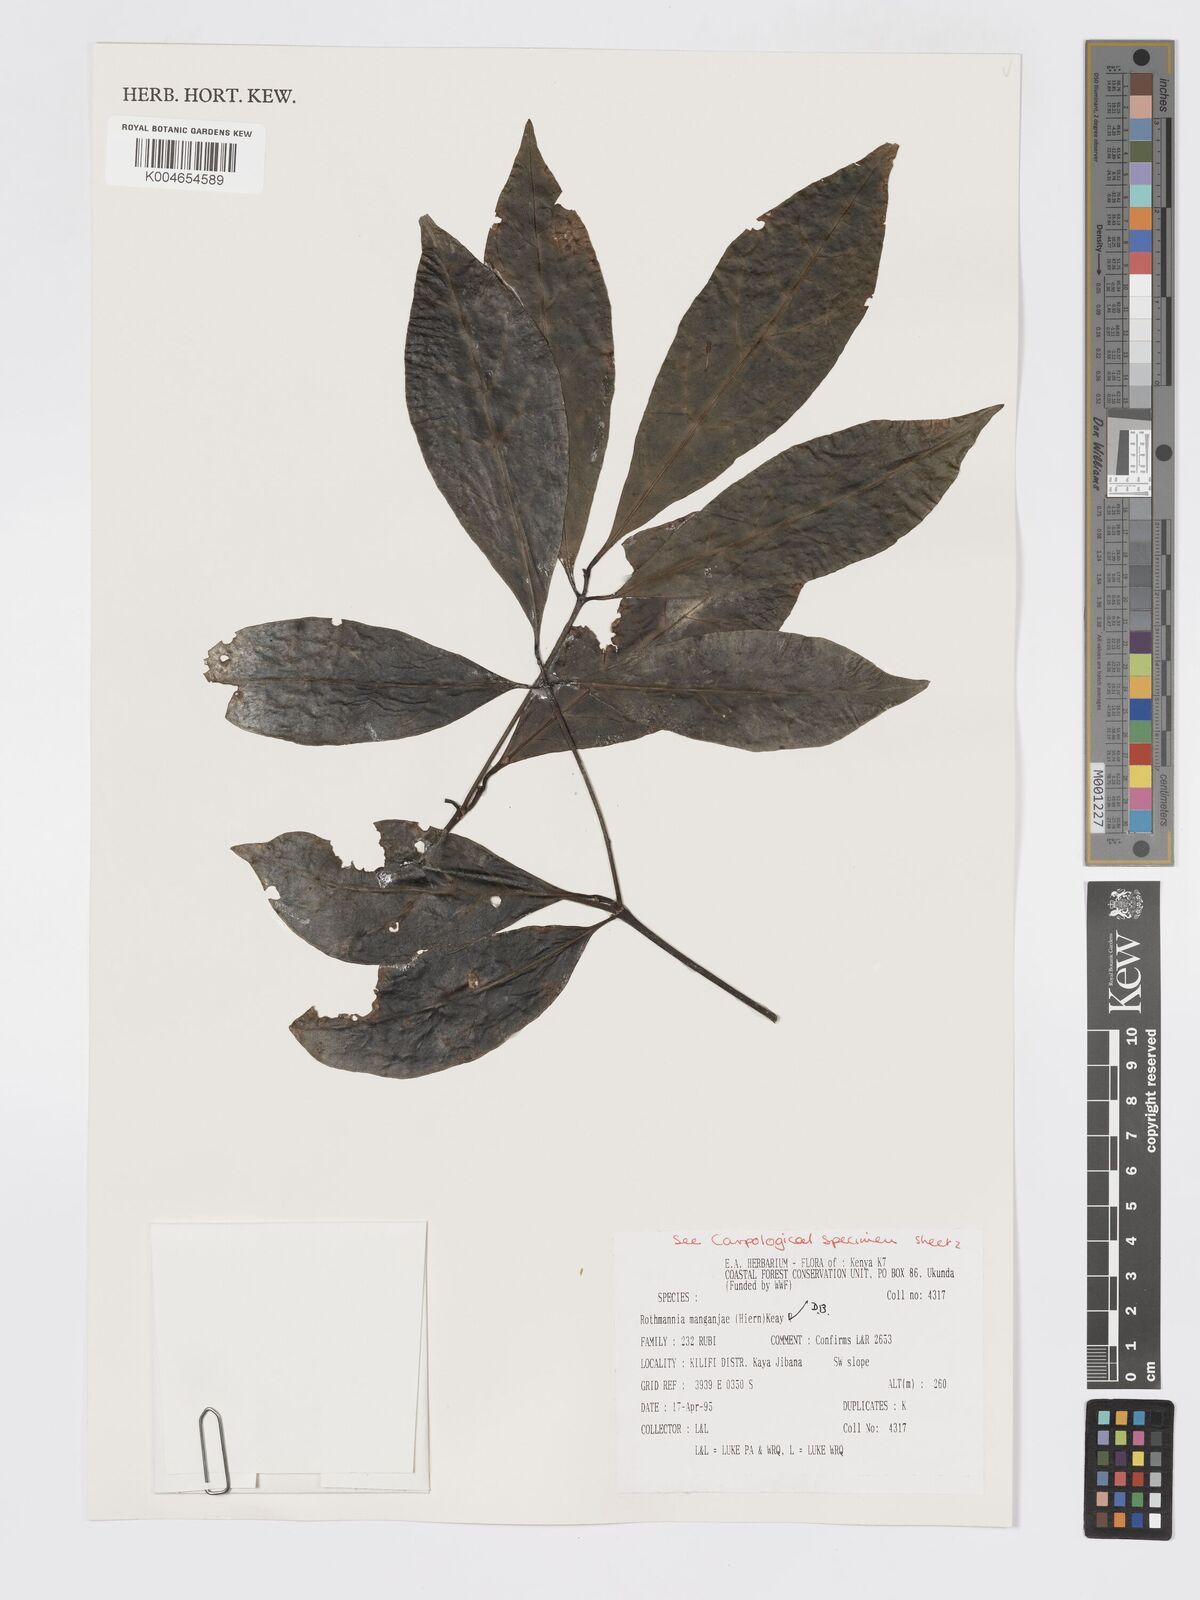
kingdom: Plantae
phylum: Tracheophyta
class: Magnoliopsida
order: Gentianales
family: Rubiaceae
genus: Rothmannia
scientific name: Rothmannia manganjae
